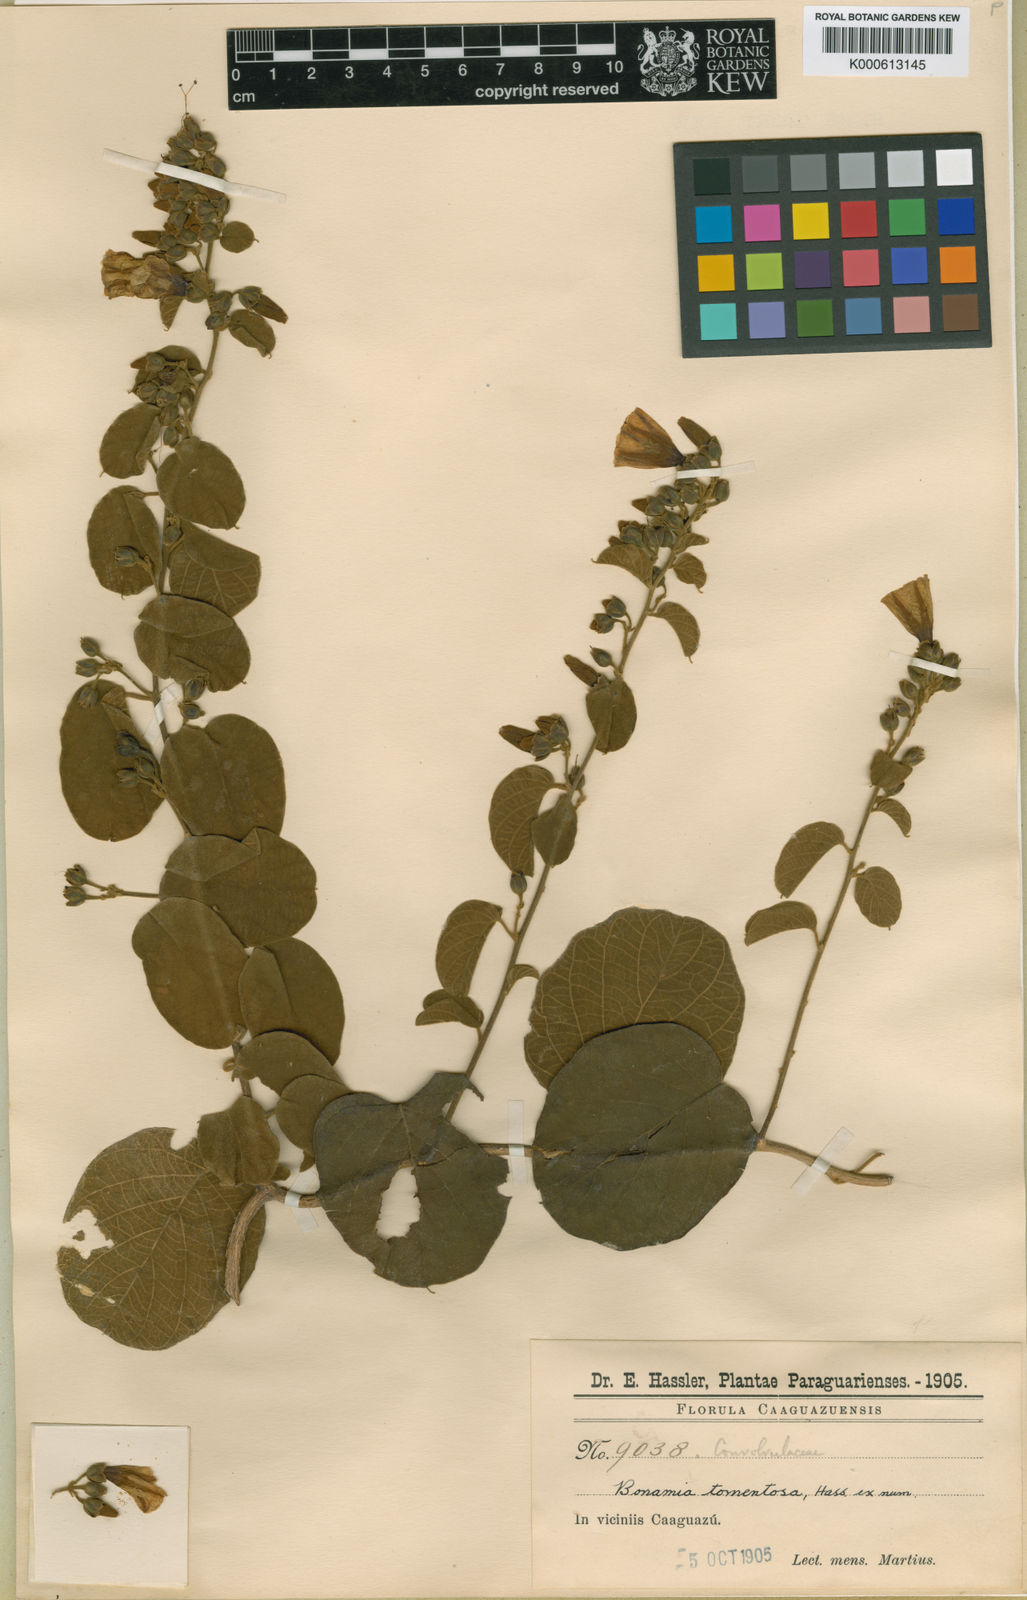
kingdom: Plantae
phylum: Tracheophyta
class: Magnoliopsida
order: Solanales
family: Convolvulaceae
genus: Bonamia
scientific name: Bonamia agrostopolis
